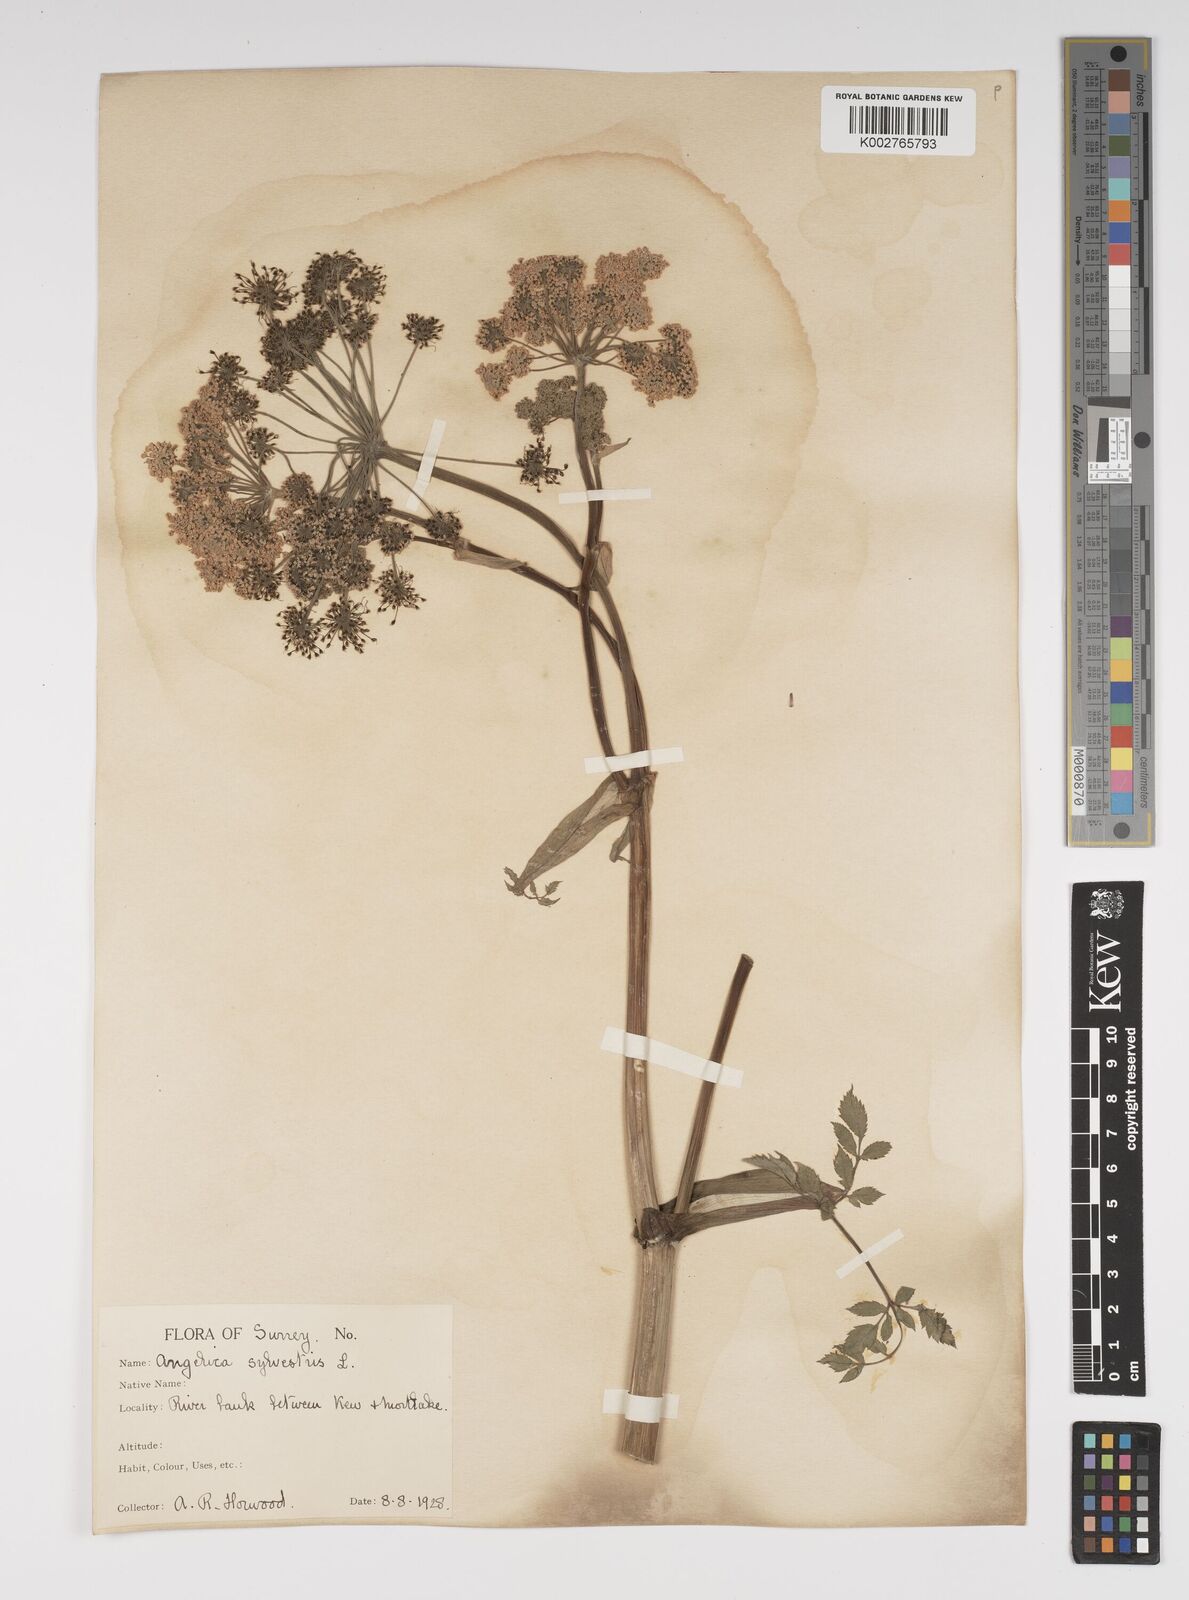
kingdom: Plantae
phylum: Tracheophyta
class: Magnoliopsida
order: Apiales
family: Apiaceae
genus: Angelica
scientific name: Angelica sylvestris
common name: Wild angelica
